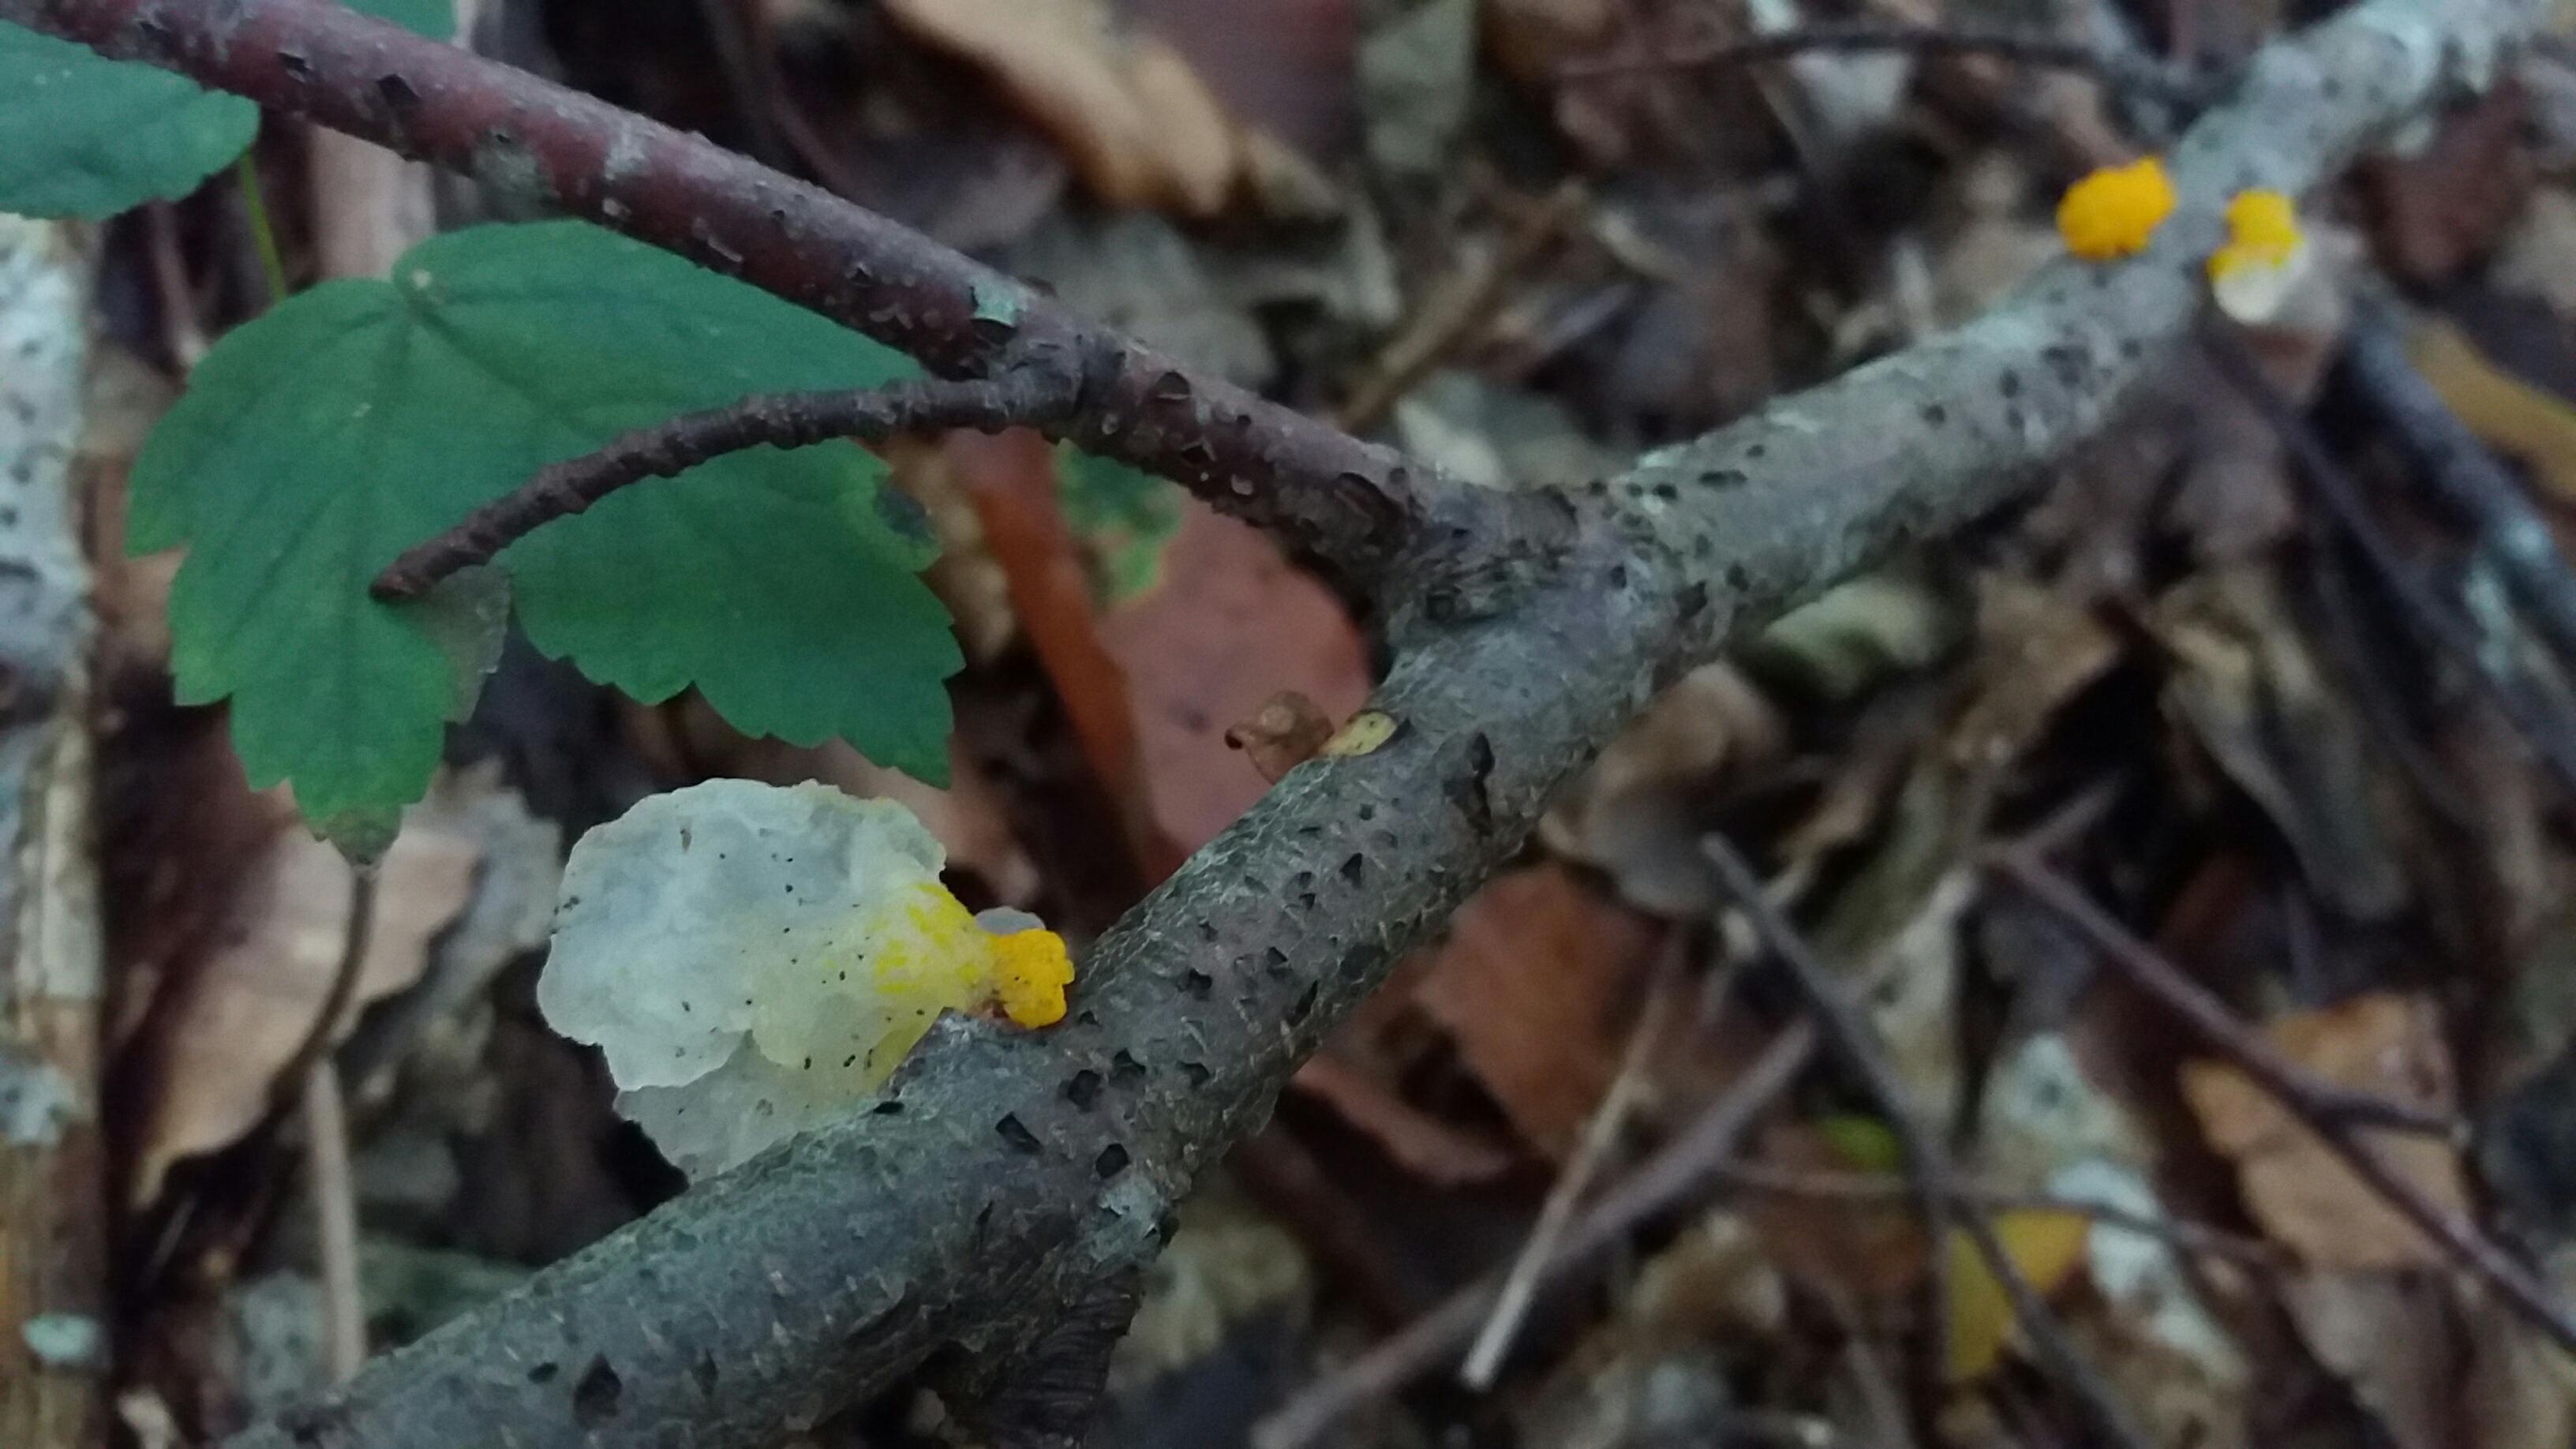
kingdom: Fungi
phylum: Basidiomycota
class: Tremellomycetes
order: Tremellales
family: Tremellaceae
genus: Tremella
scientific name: Tremella mesenterica
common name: gul bævresvamp
